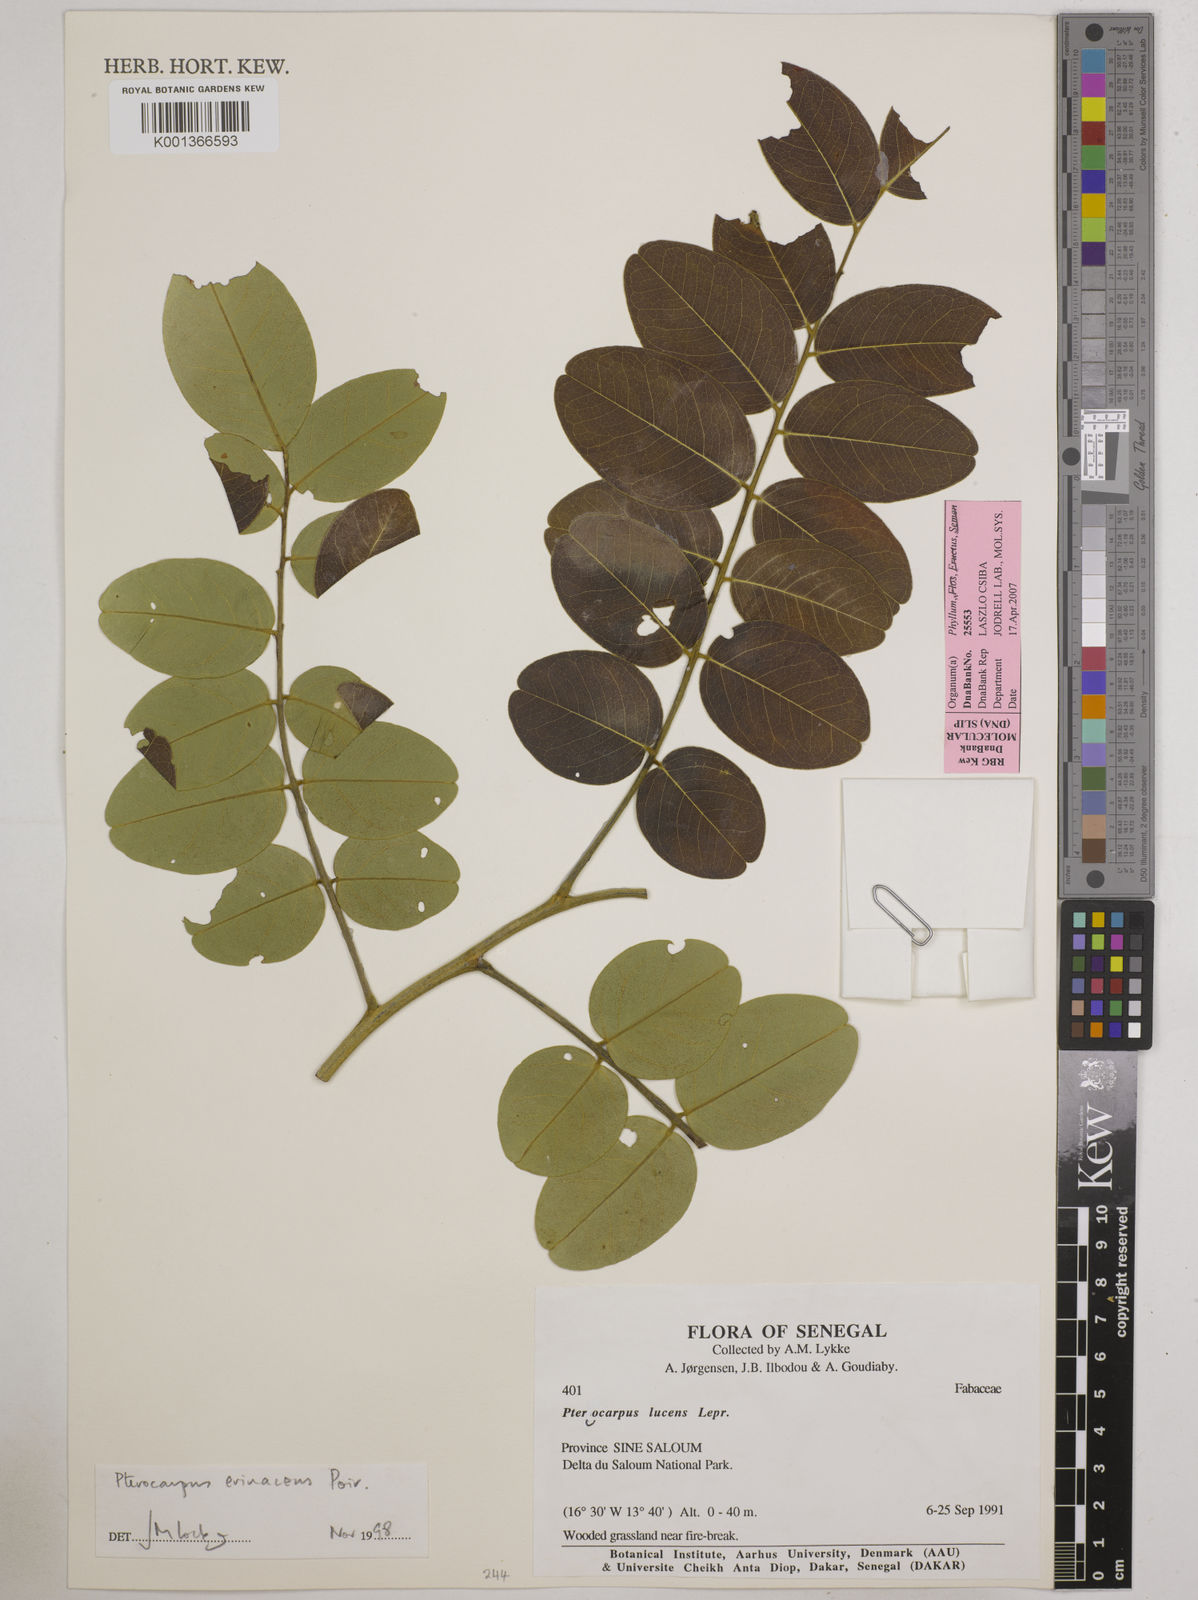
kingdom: Plantae
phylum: Tracheophyta
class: Magnoliopsida
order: Fabales
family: Fabaceae
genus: Pterocarpus
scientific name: Pterocarpus erinaceus
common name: African rosewood
